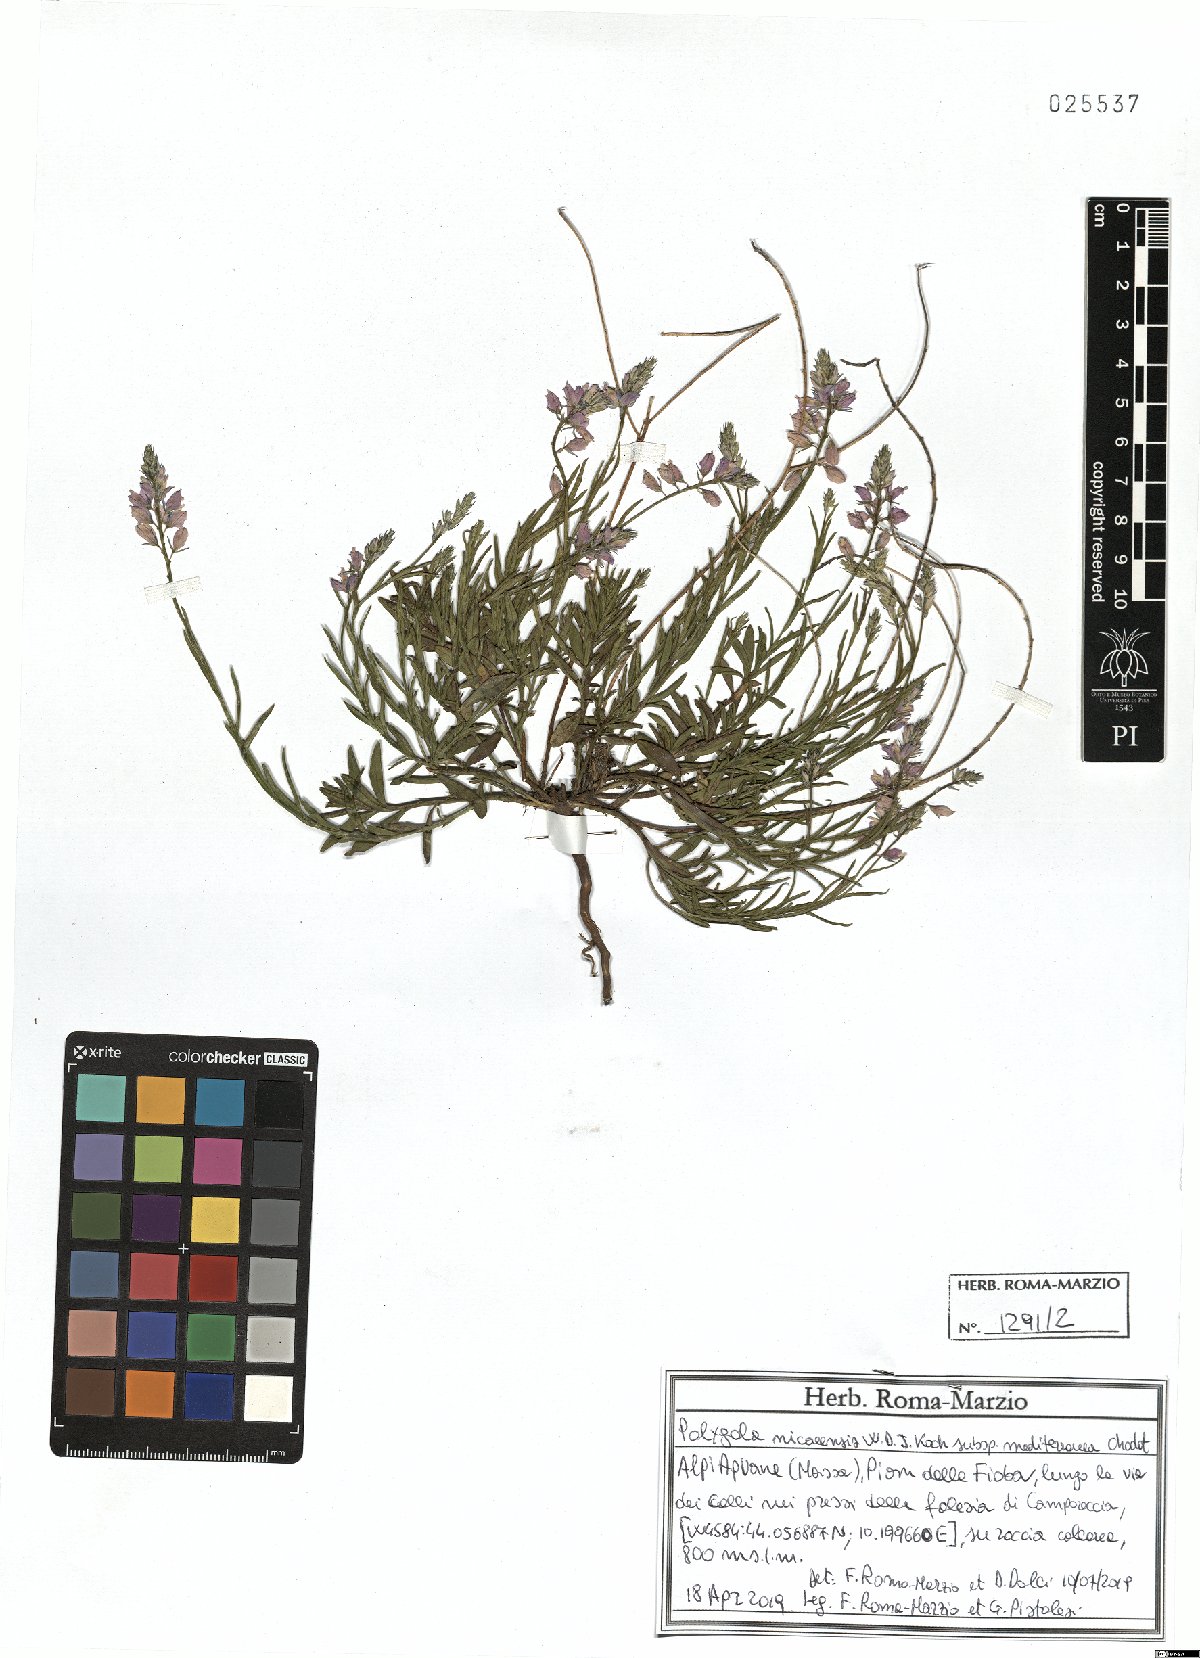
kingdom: Plantae
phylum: Tracheophyta
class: Magnoliopsida
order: Fabales
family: Polygalaceae
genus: Polygala
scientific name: Polygala nicaeensis
